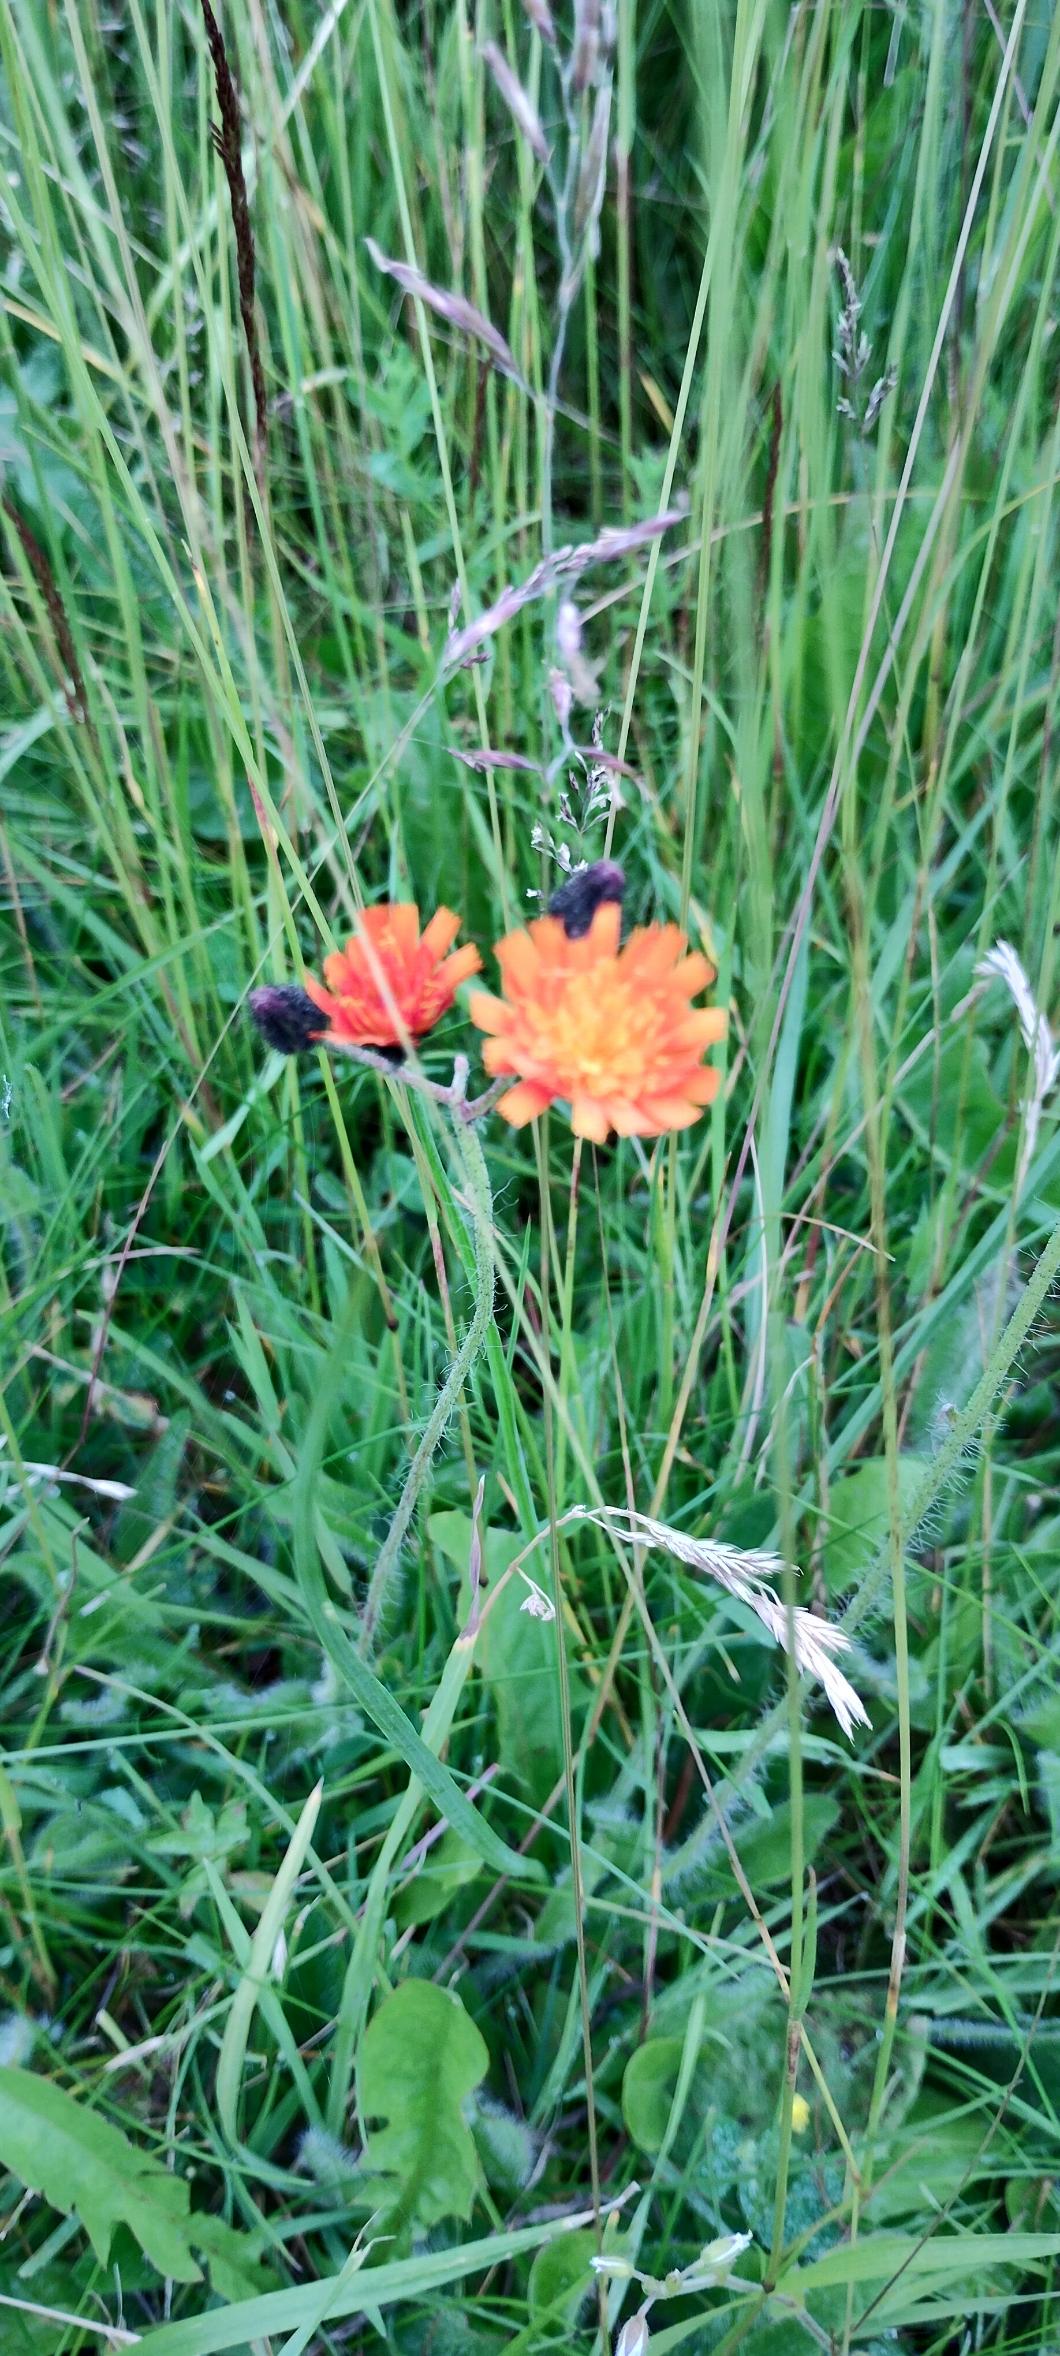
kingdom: Plantae
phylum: Tracheophyta
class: Magnoliopsida
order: Asterales
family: Asteraceae
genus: Pilosella
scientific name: Pilosella aurantiaca
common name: Pomerans-høgeurt
